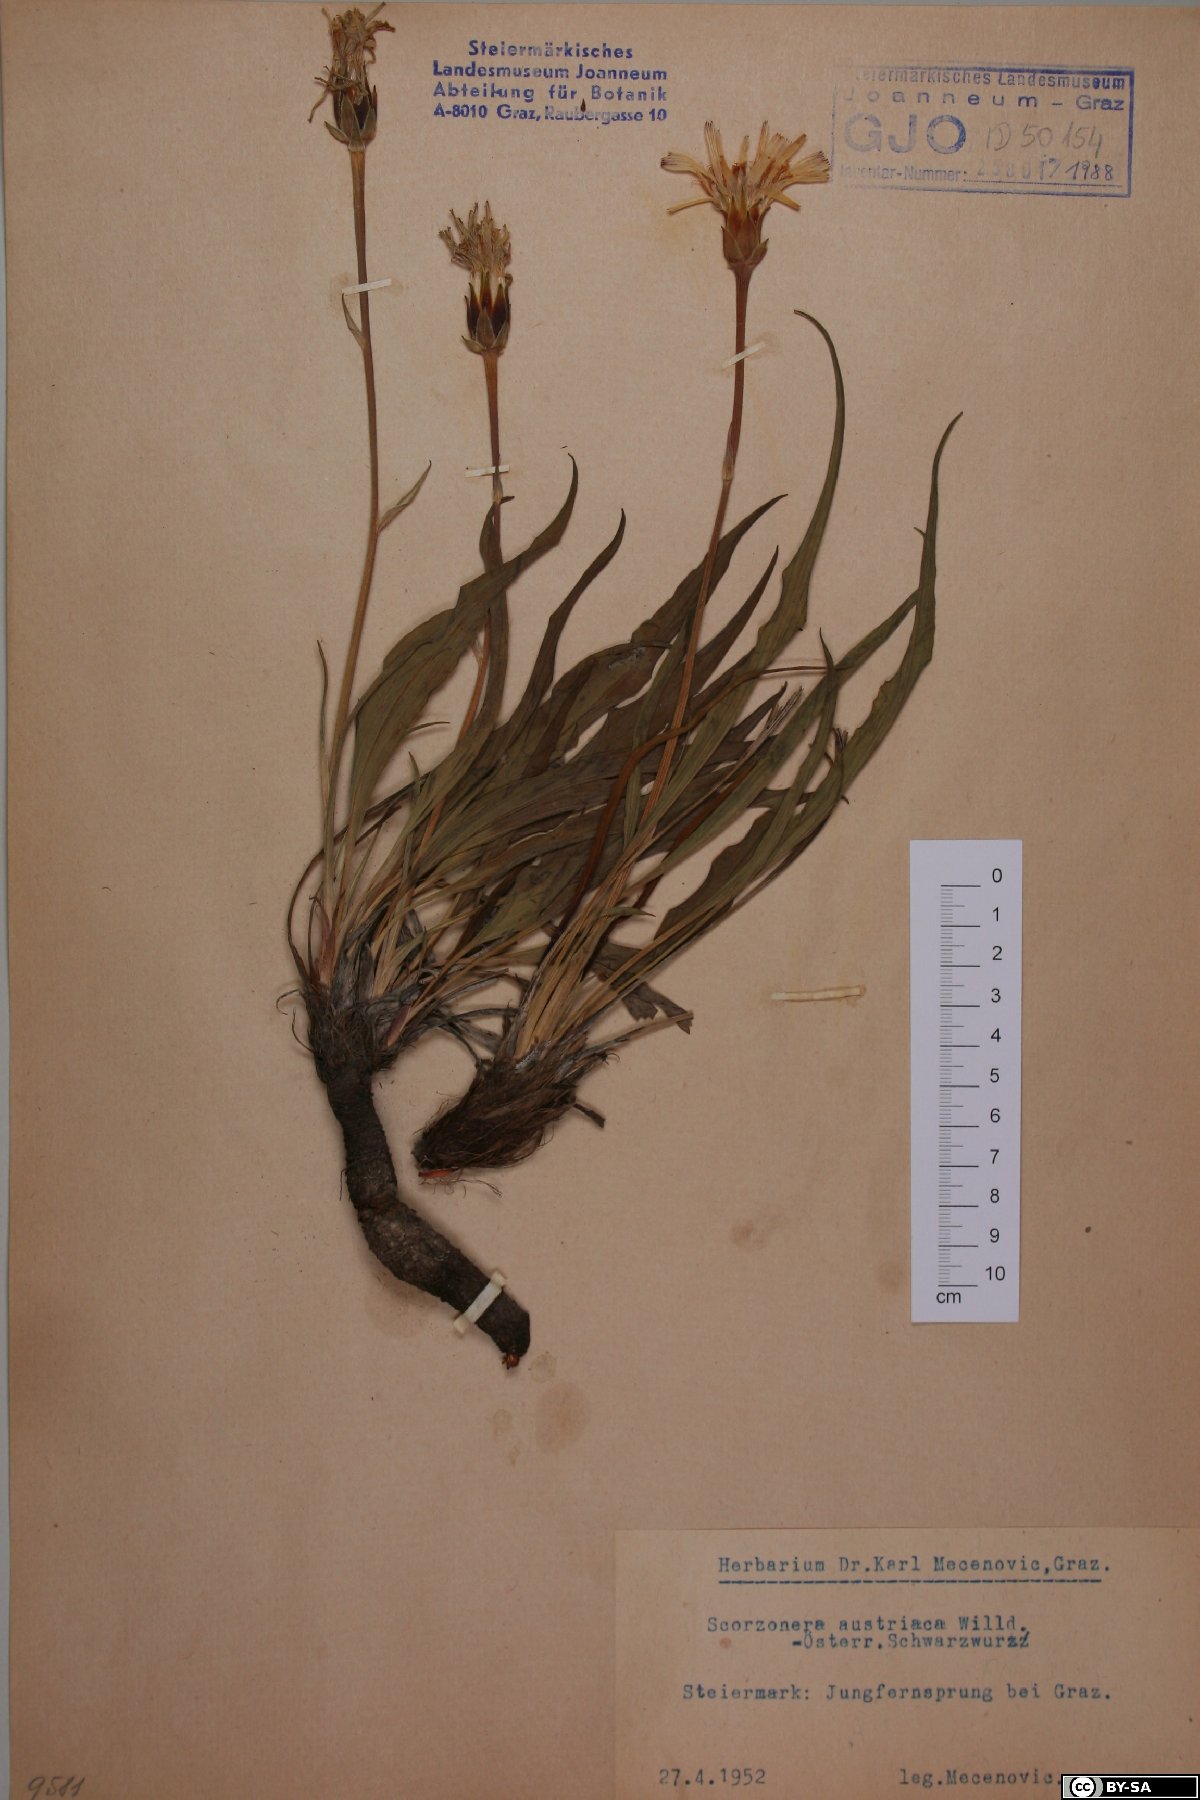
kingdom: Plantae
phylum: Tracheophyta
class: Magnoliopsida
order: Asterales
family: Asteraceae
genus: Takhtajaniantha
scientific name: Takhtajaniantha austriaca
